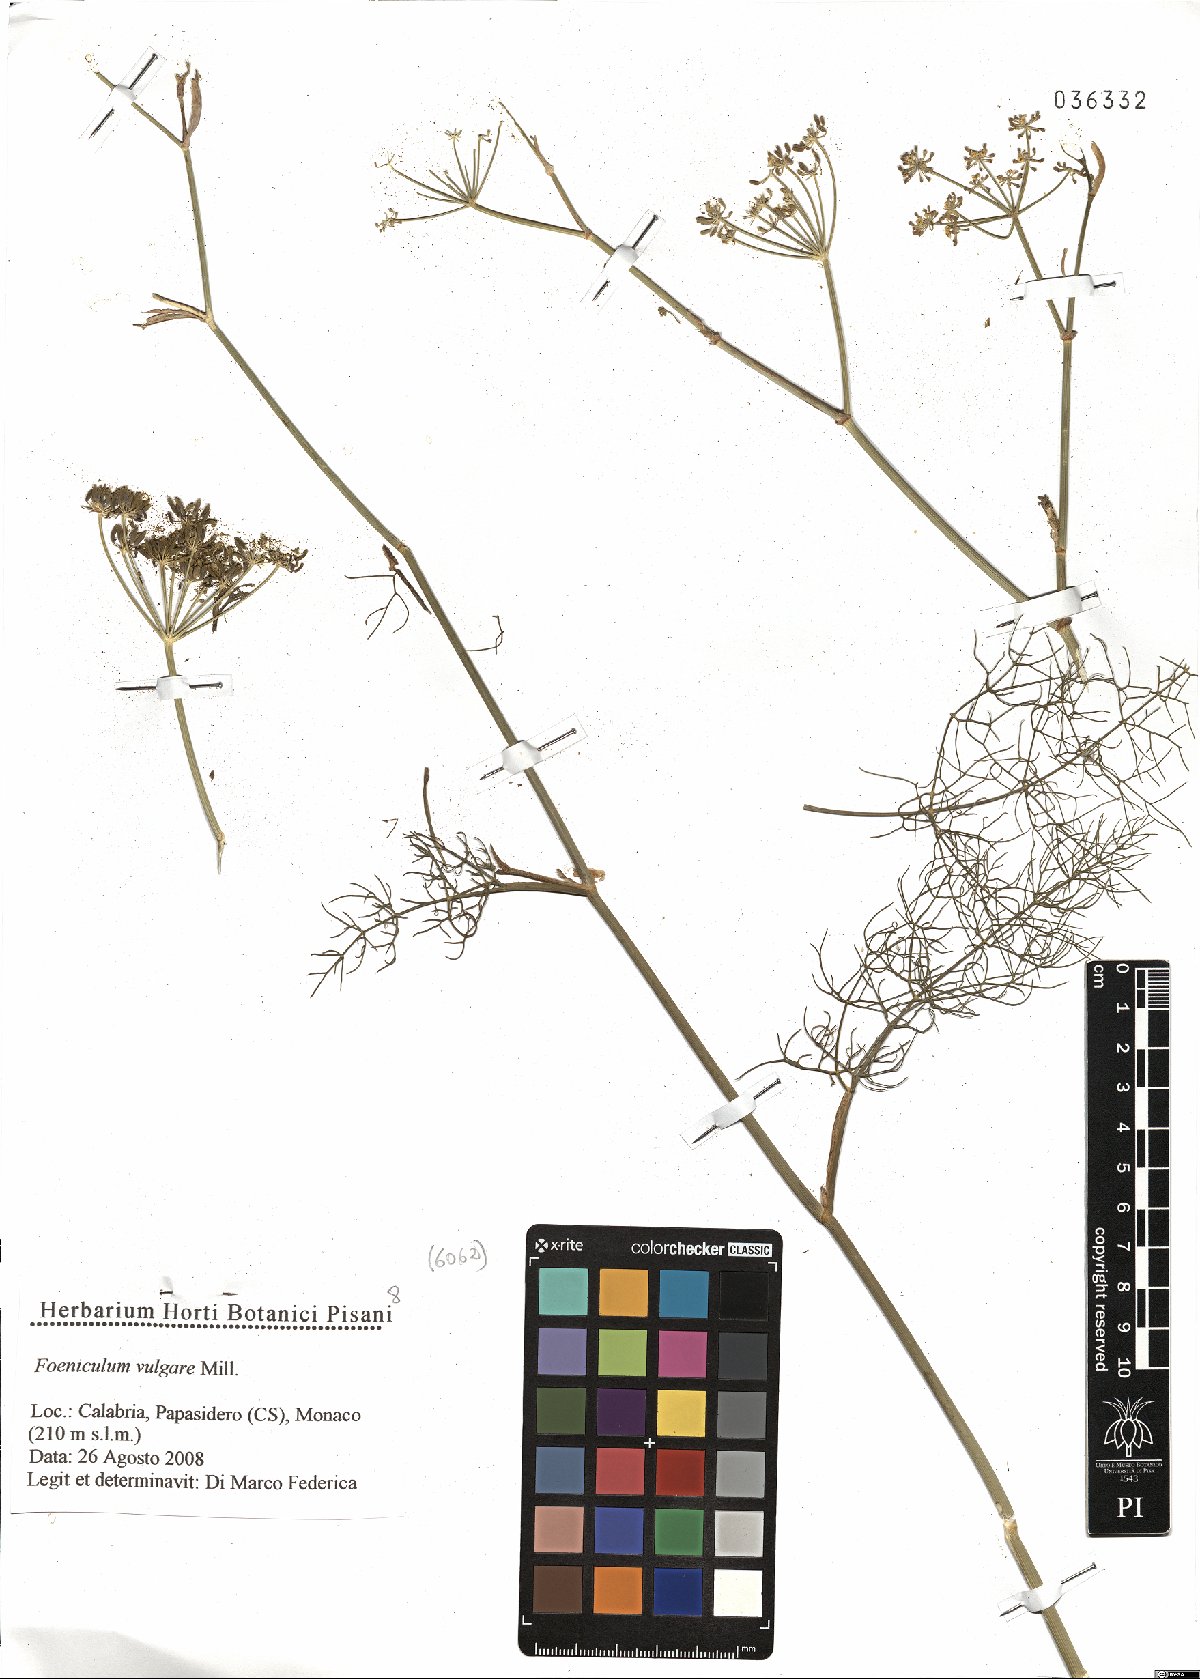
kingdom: Plantae
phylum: Tracheophyta
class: Magnoliopsida
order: Apiales
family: Apiaceae
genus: Foeniculum
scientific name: Foeniculum vulgare
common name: Fennel
